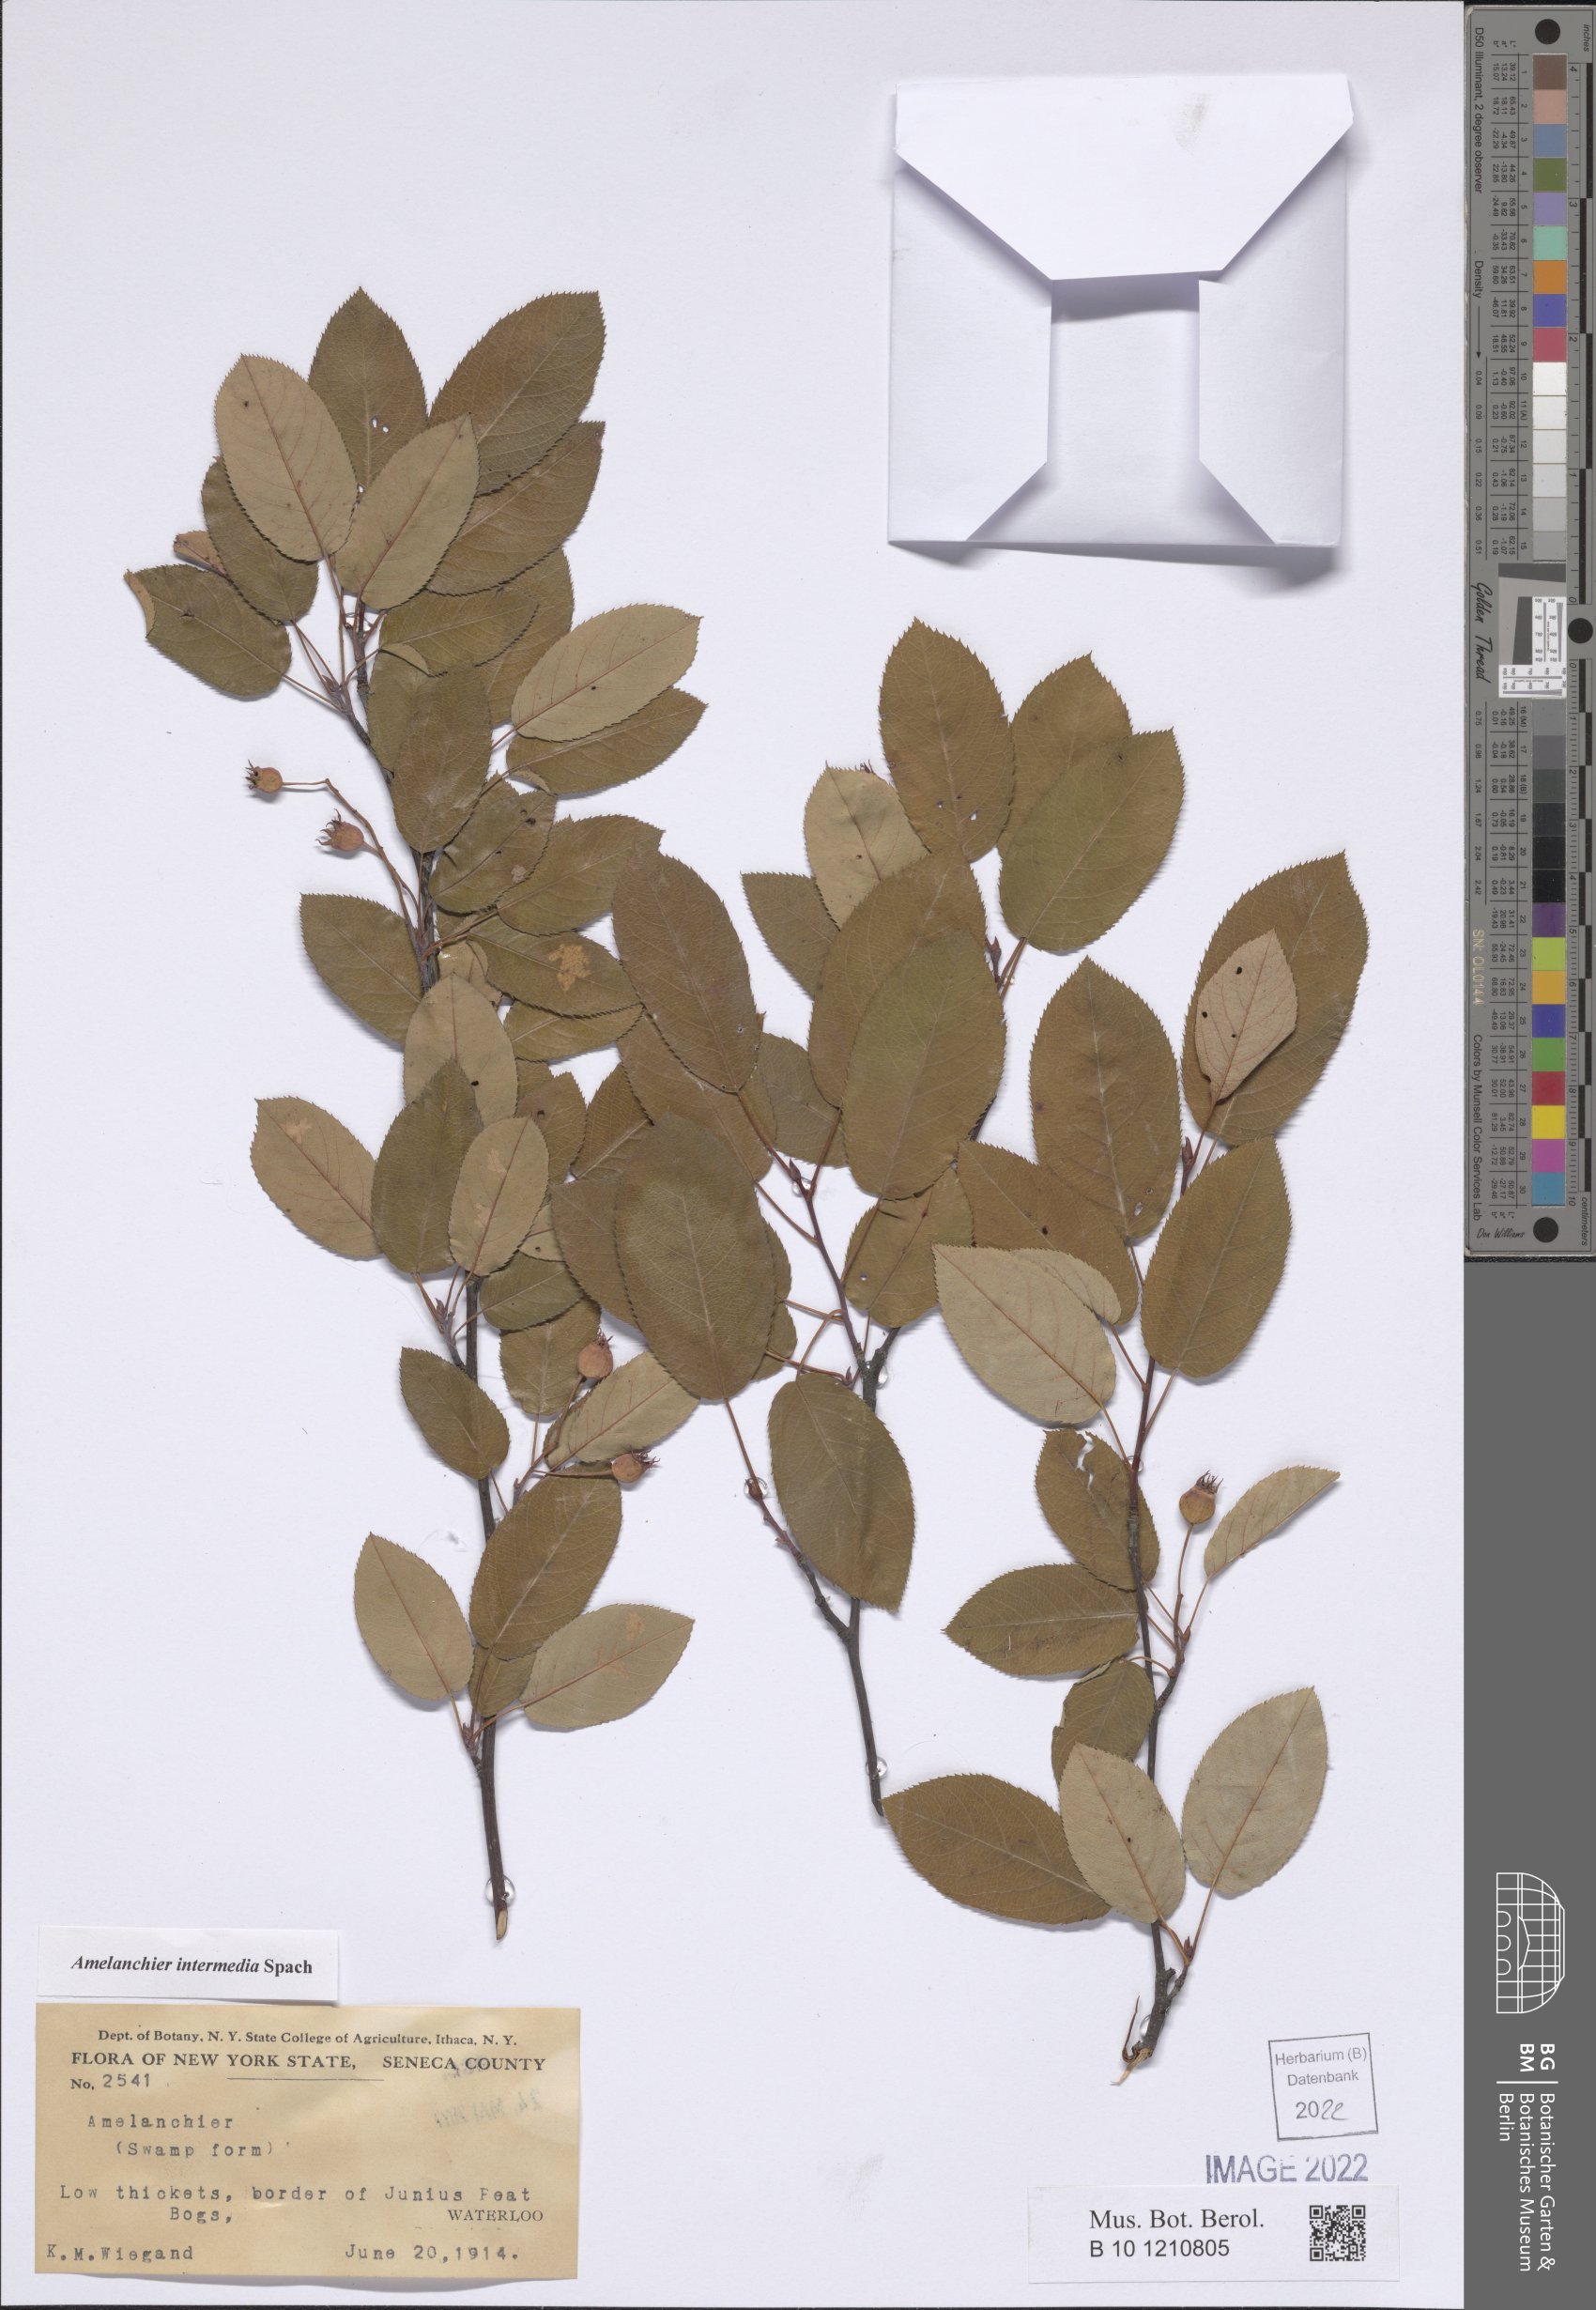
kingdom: Plantae
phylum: Tracheophyta
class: Magnoliopsida
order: Rosales
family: Rosaceae
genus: Amelanchier
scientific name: Amelanchier intermedia
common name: Intermediate shadbush
